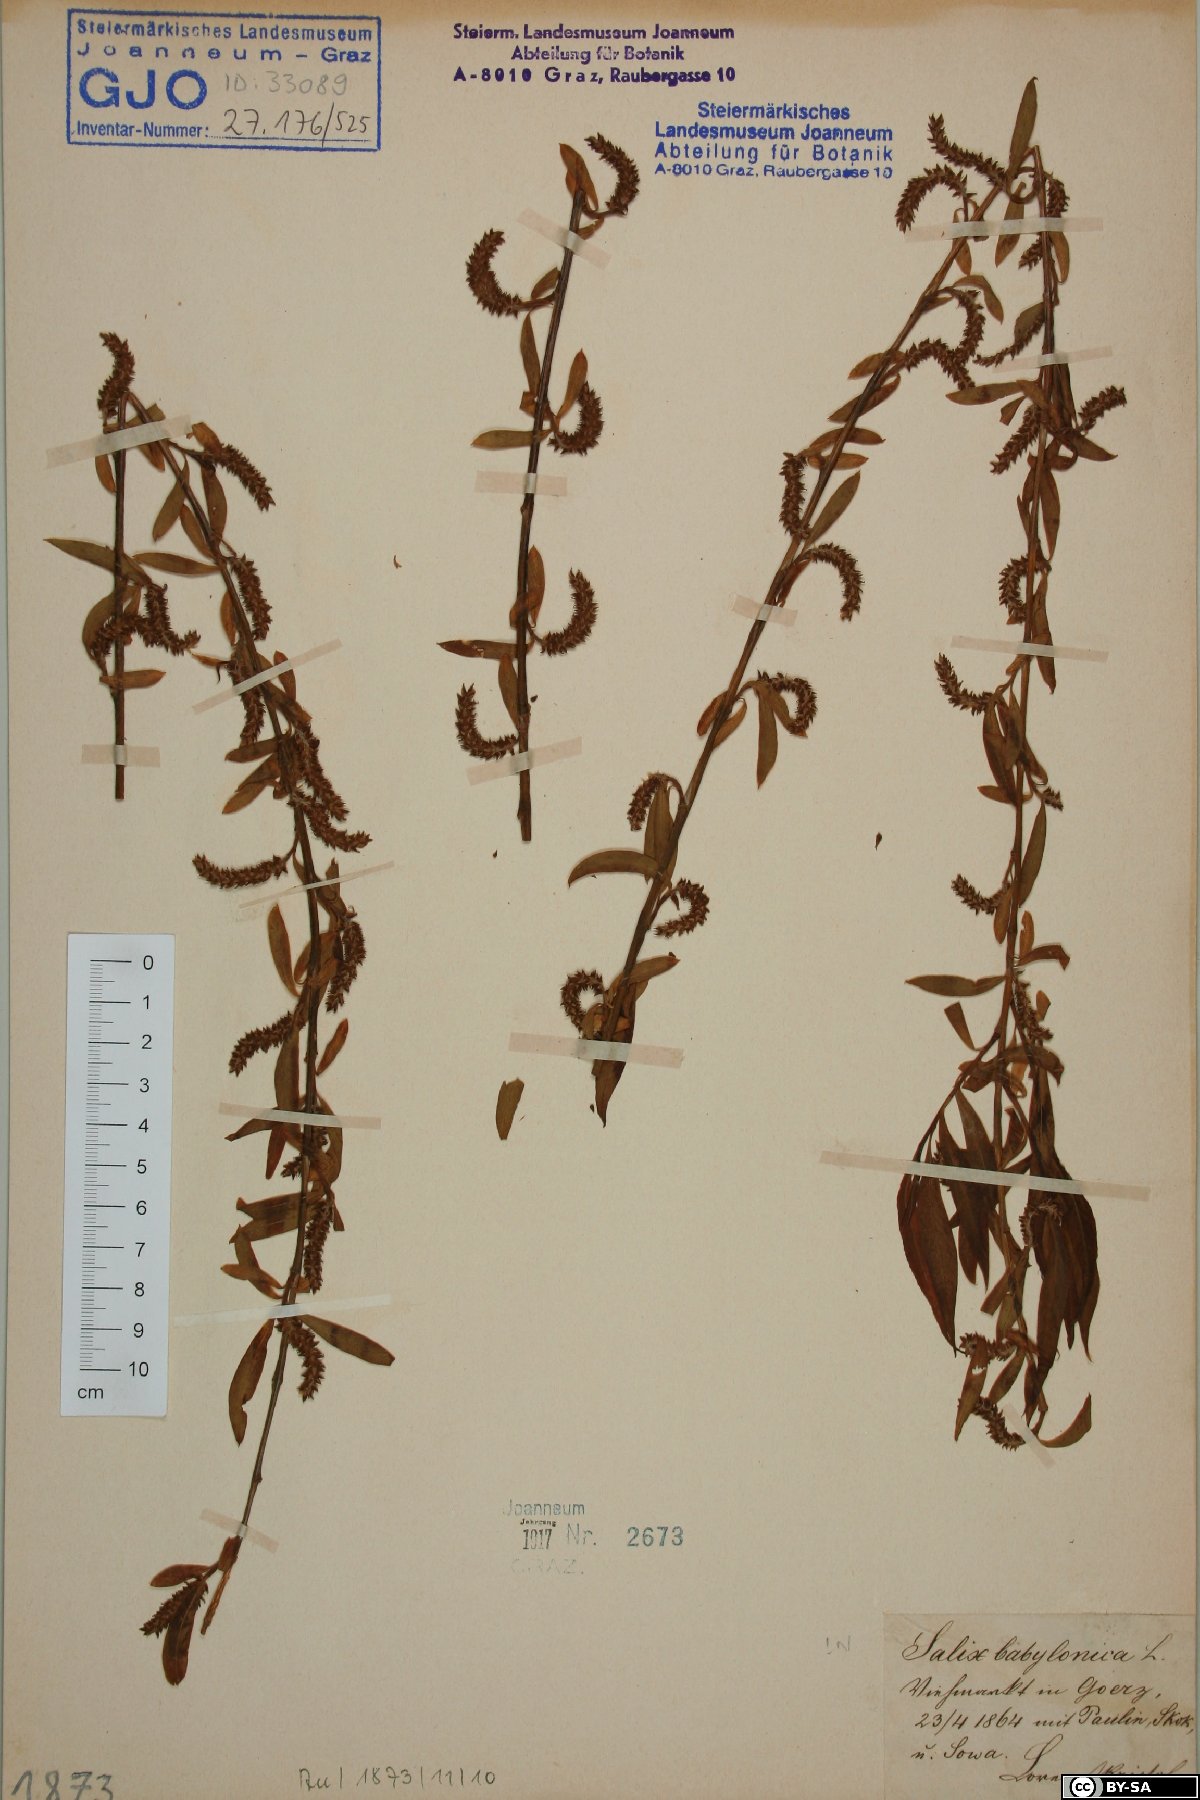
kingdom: Plantae
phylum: Tracheophyta
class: Magnoliopsida
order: Malpighiales
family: Salicaceae
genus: Salix
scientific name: Salix babylonica
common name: Weeping willow
